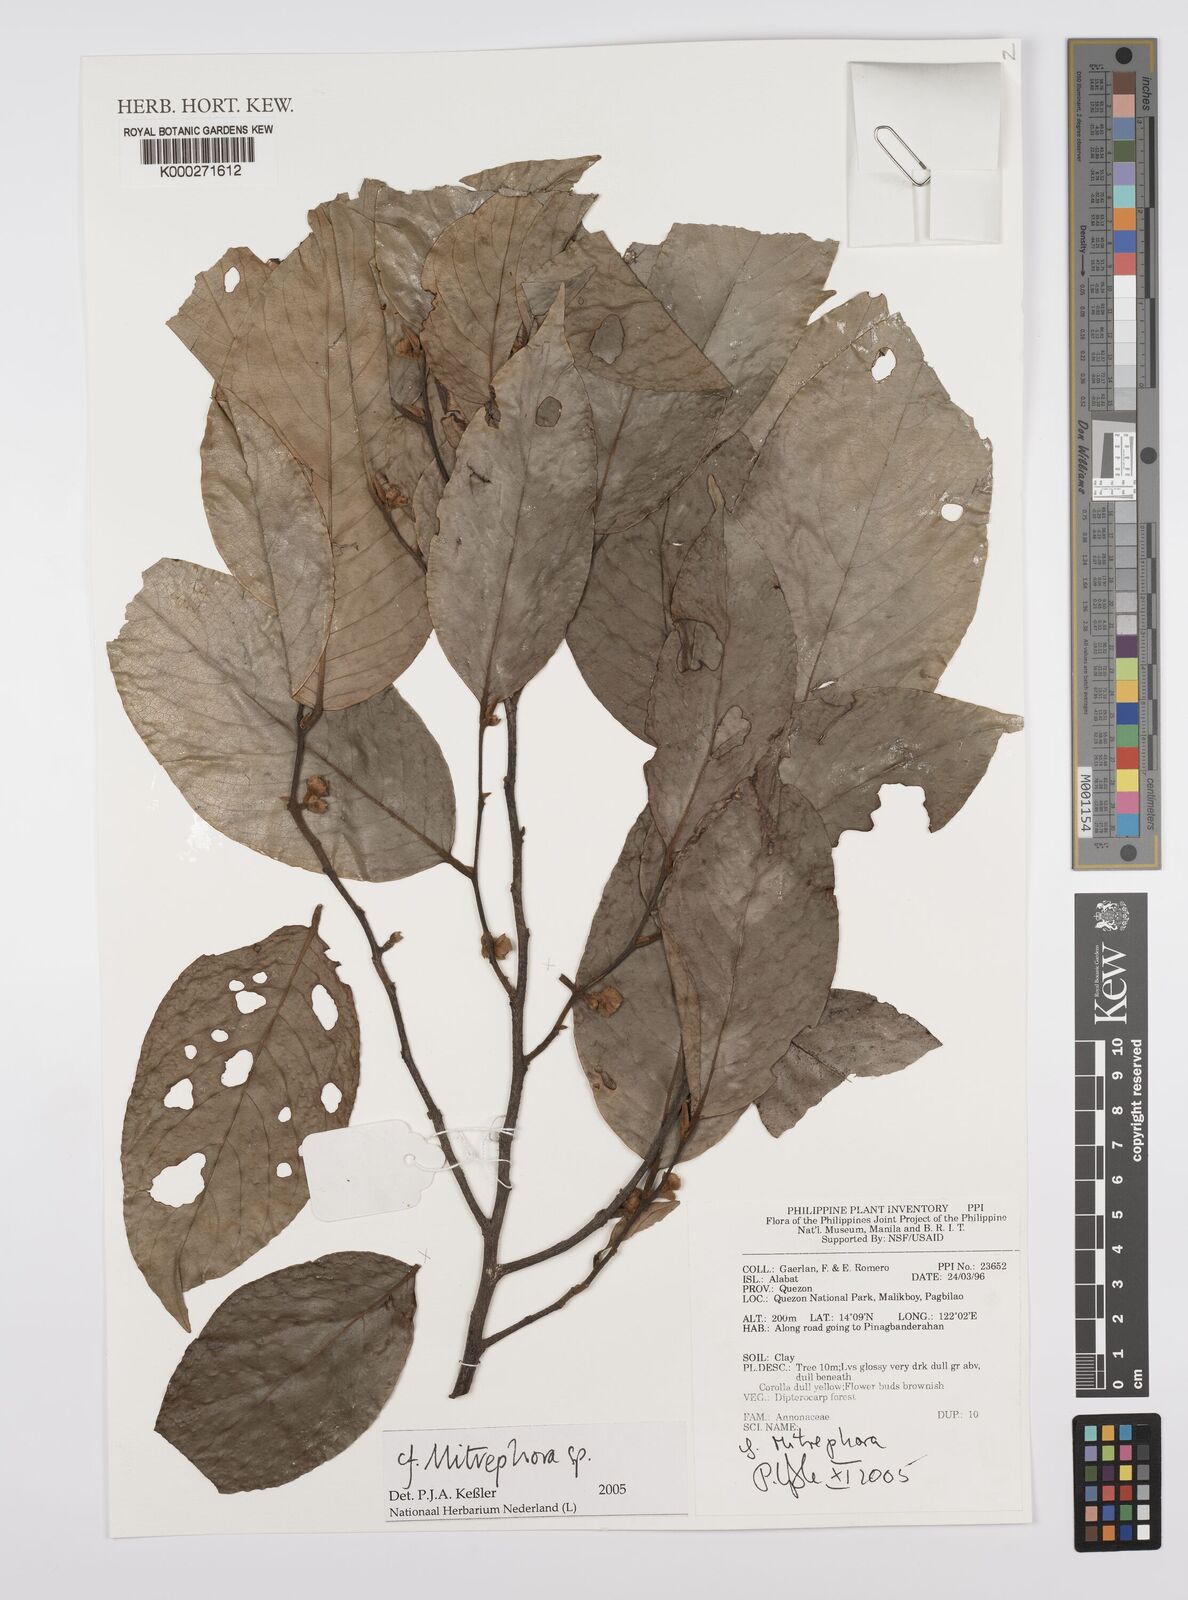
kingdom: Plantae
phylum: Tracheophyta
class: Magnoliopsida
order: Magnoliales
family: Annonaceae
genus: Mitrephora
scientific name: Mitrephora
